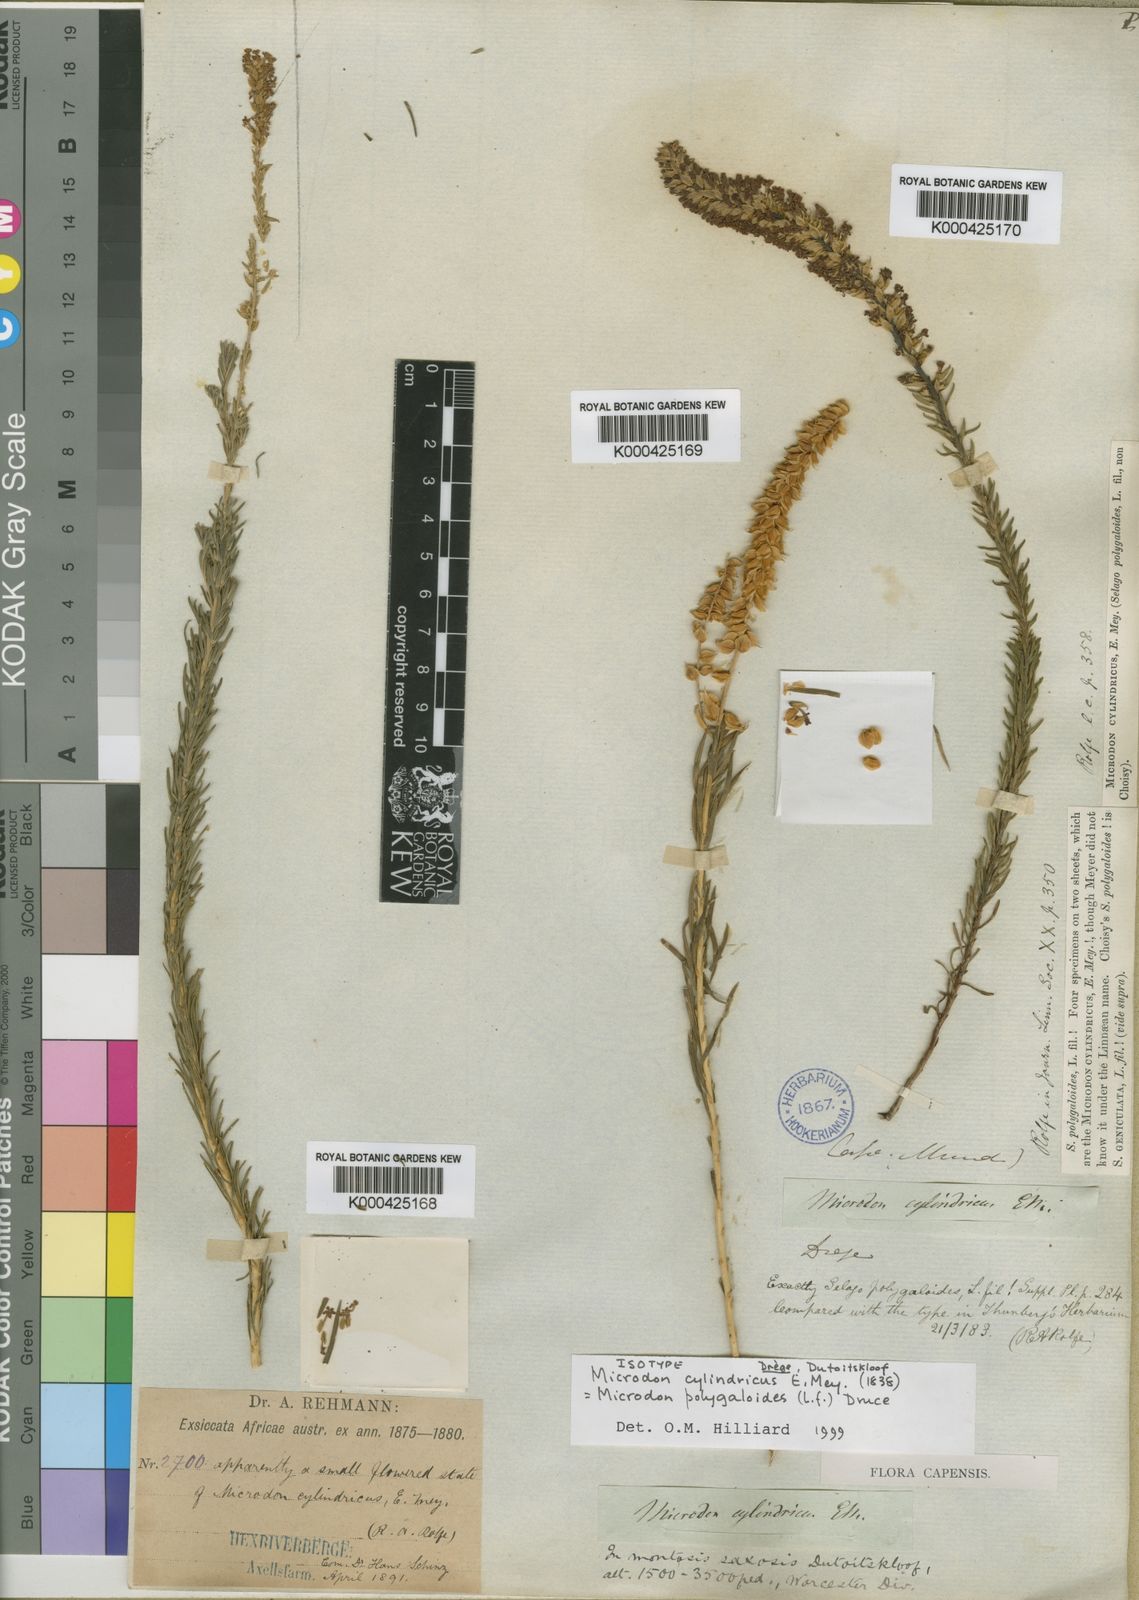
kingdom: Plantae
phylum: Tracheophyta
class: Magnoliopsida
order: Lamiales
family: Scrophulariaceae
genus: Microdon
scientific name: Microdon polygaloides
